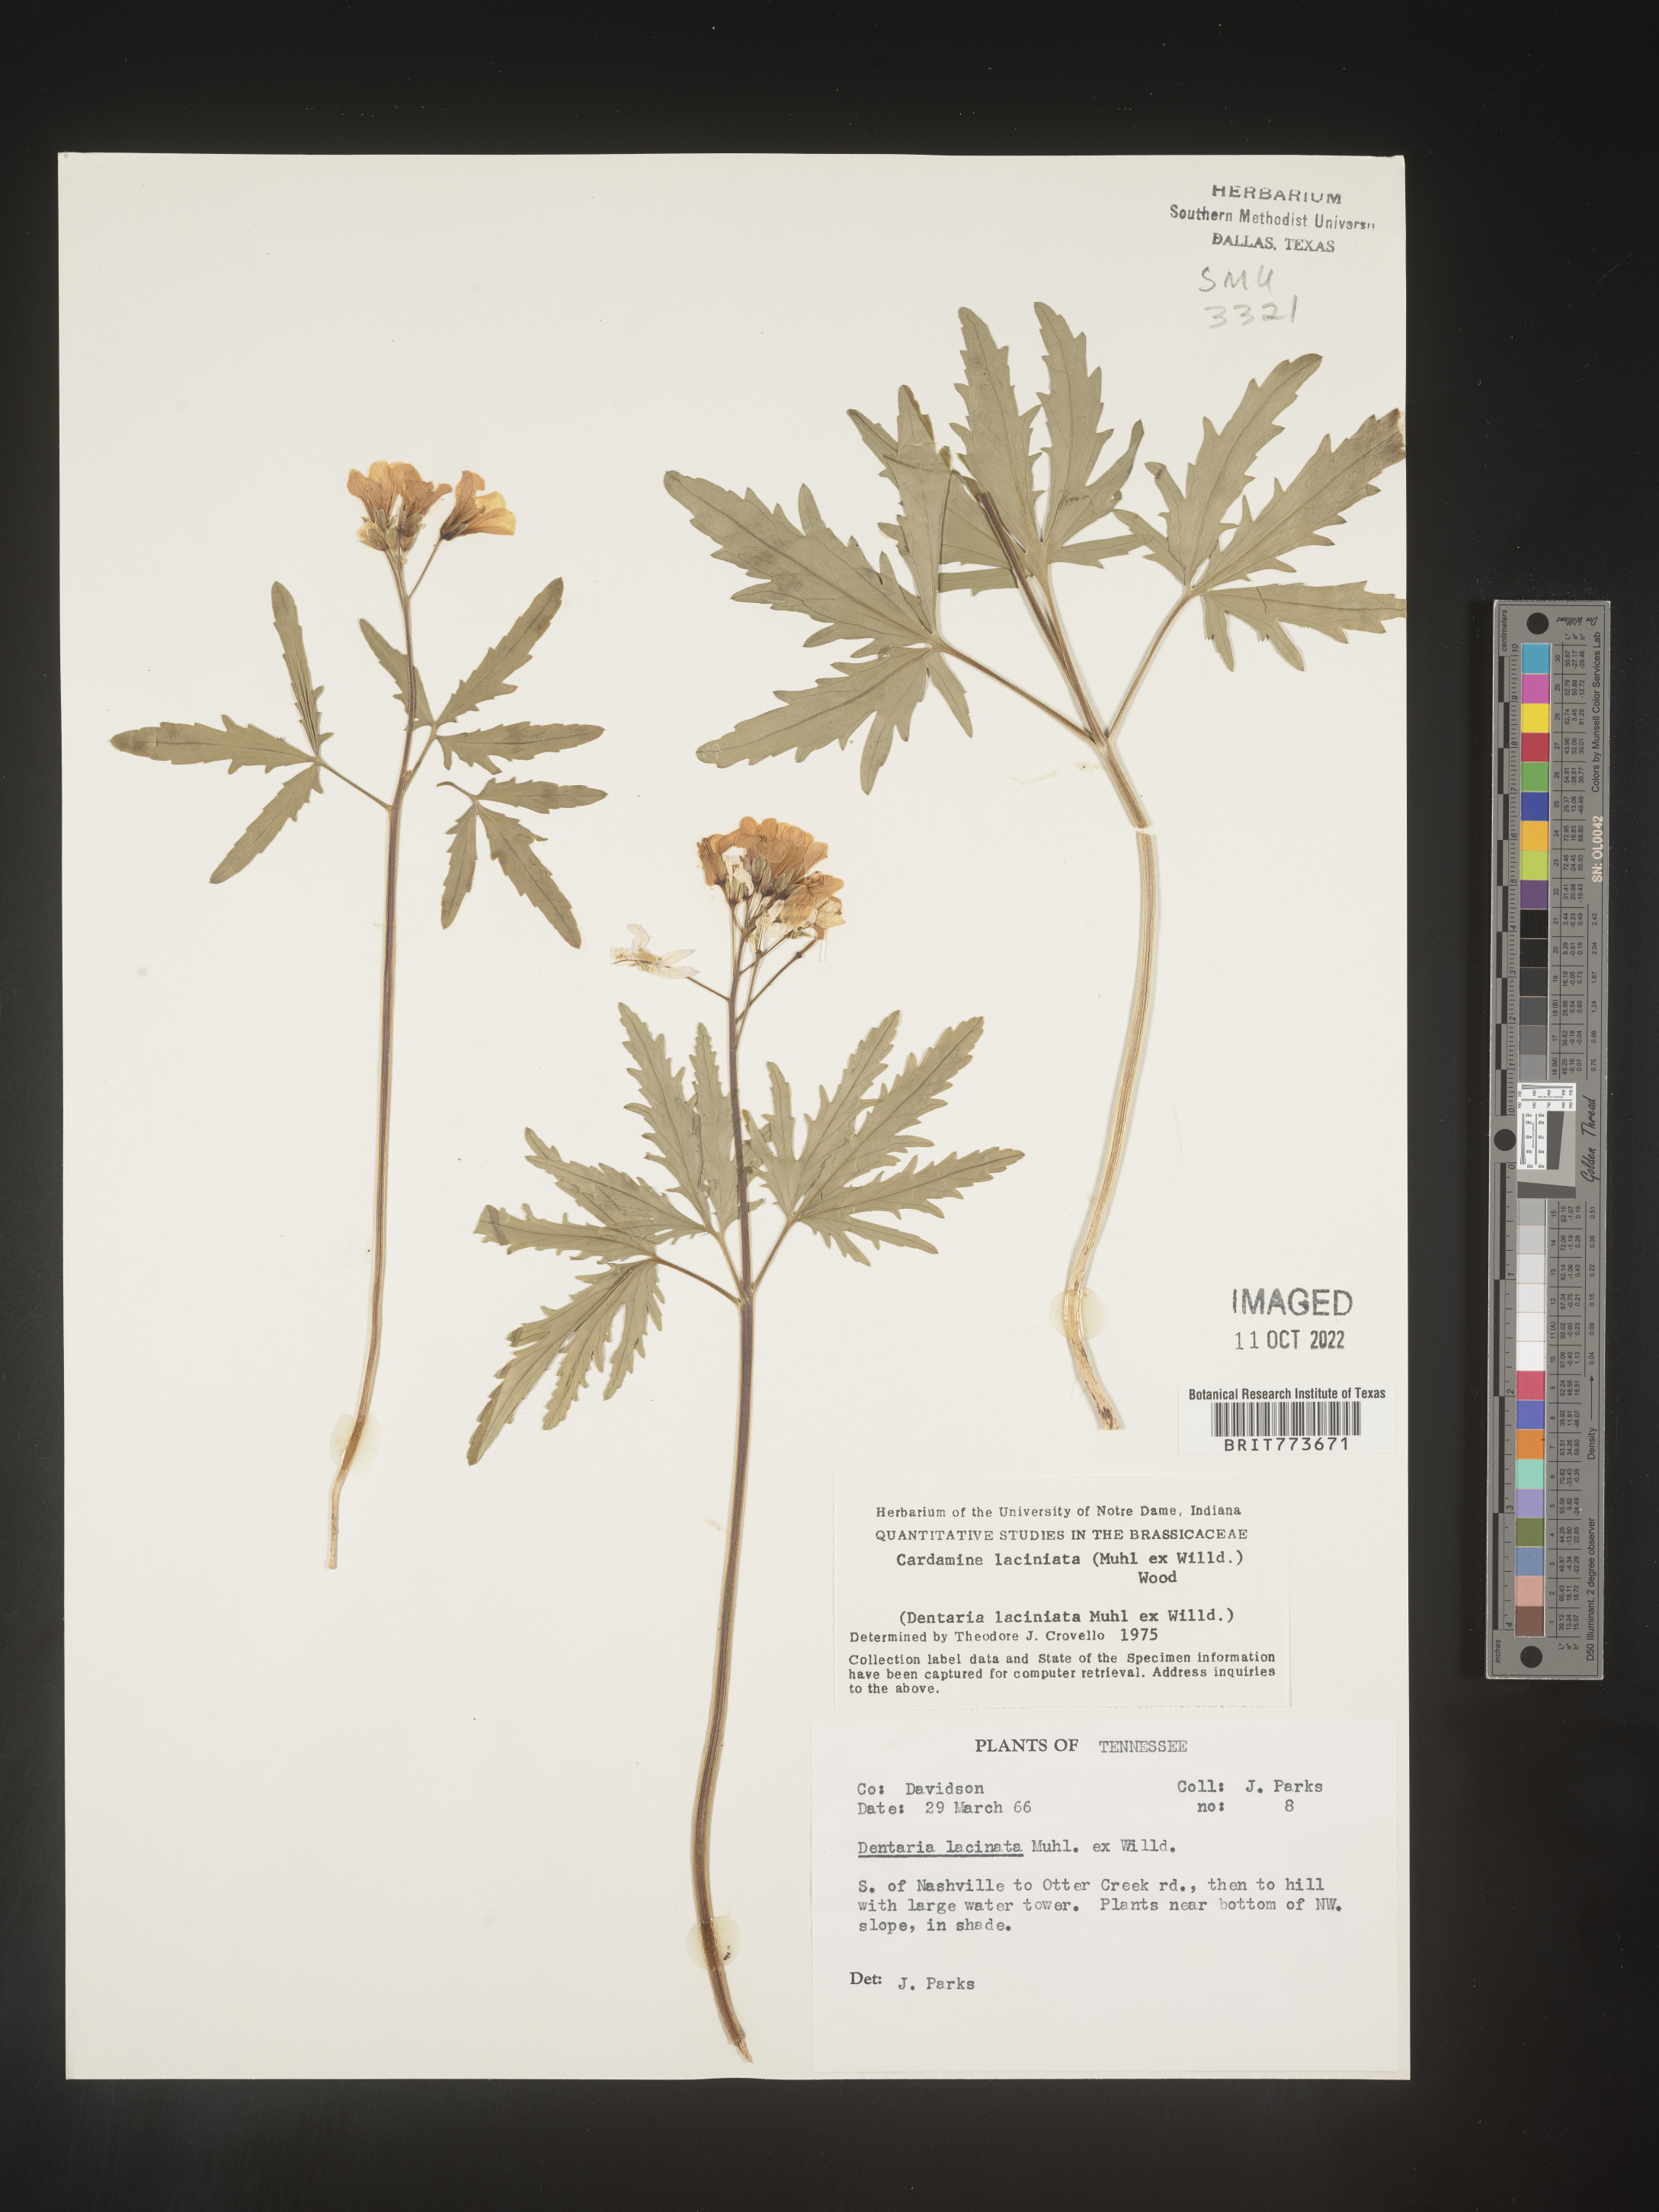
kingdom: Plantae
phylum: Tracheophyta
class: Magnoliopsida
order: Brassicales
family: Brassicaceae
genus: Rorippa
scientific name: Rorippa laciniata
